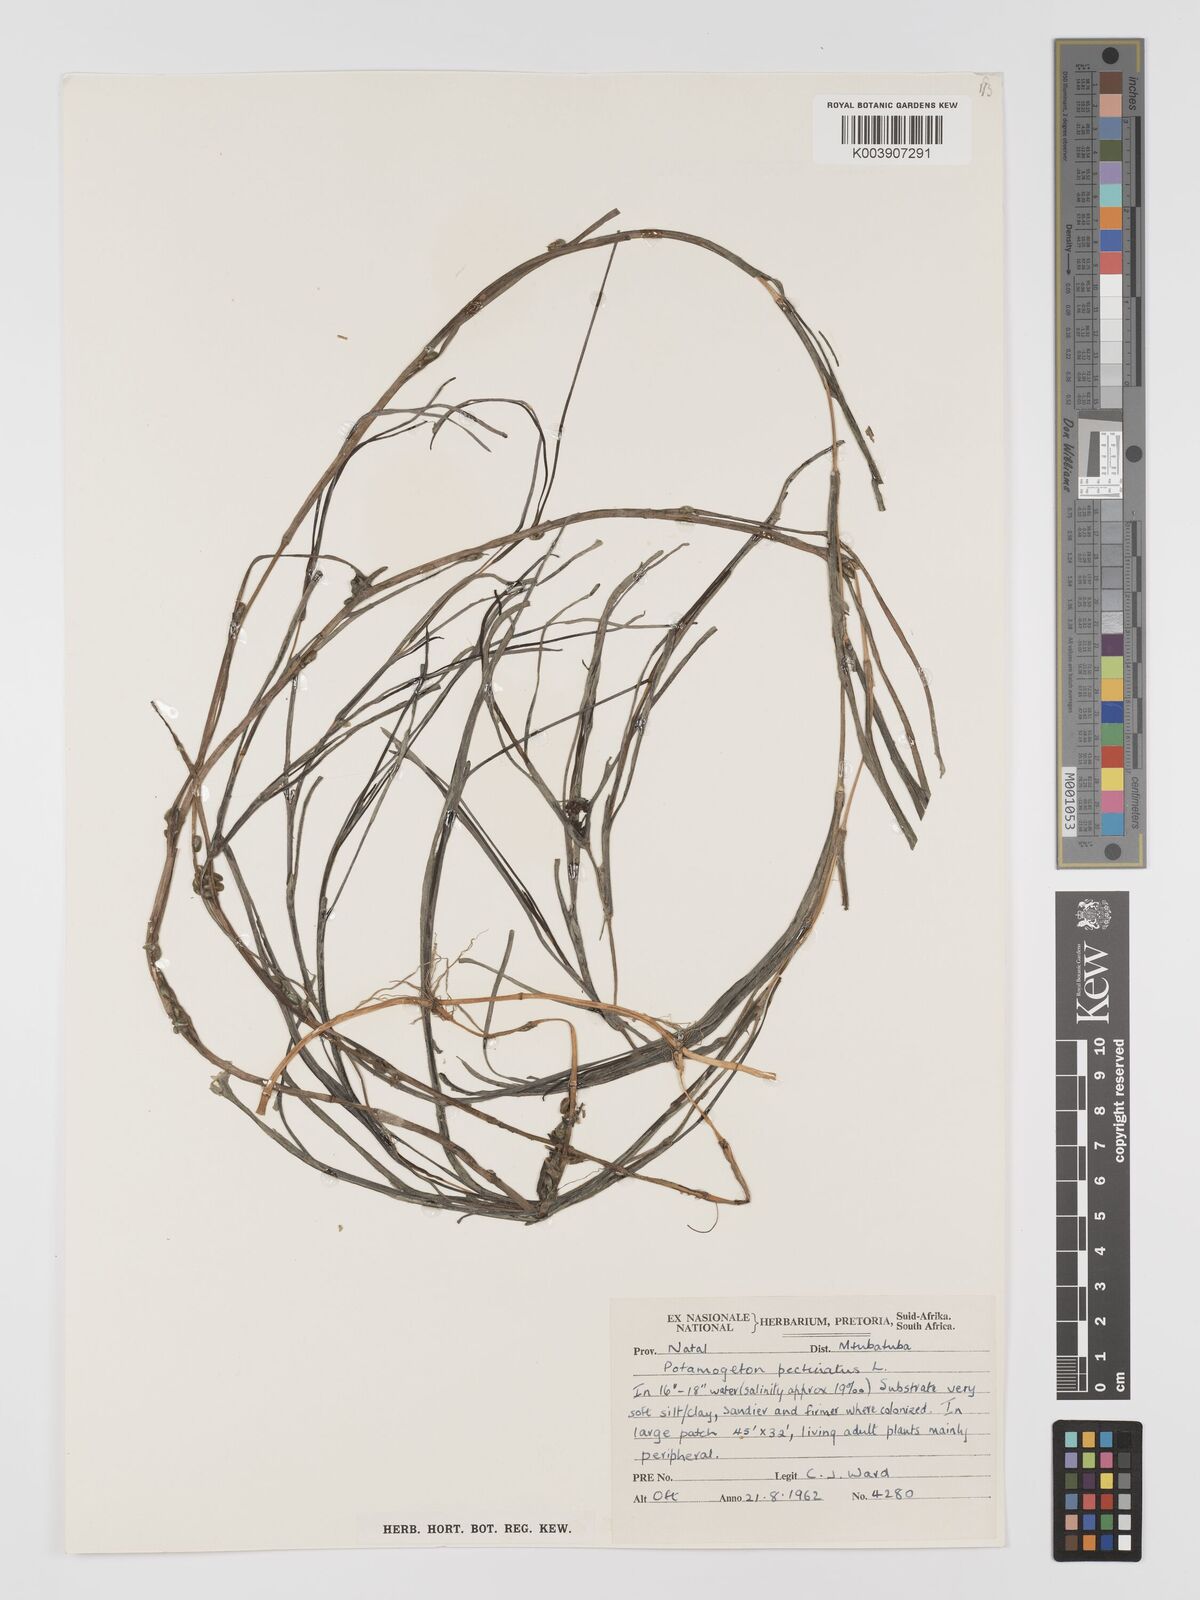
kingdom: Plantae
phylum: Tracheophyta
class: Liliopsida
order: Alismatales
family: Potamogetonaceae
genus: Stuckenia
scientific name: Stuckenia pectinata
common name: Sago pondweed
